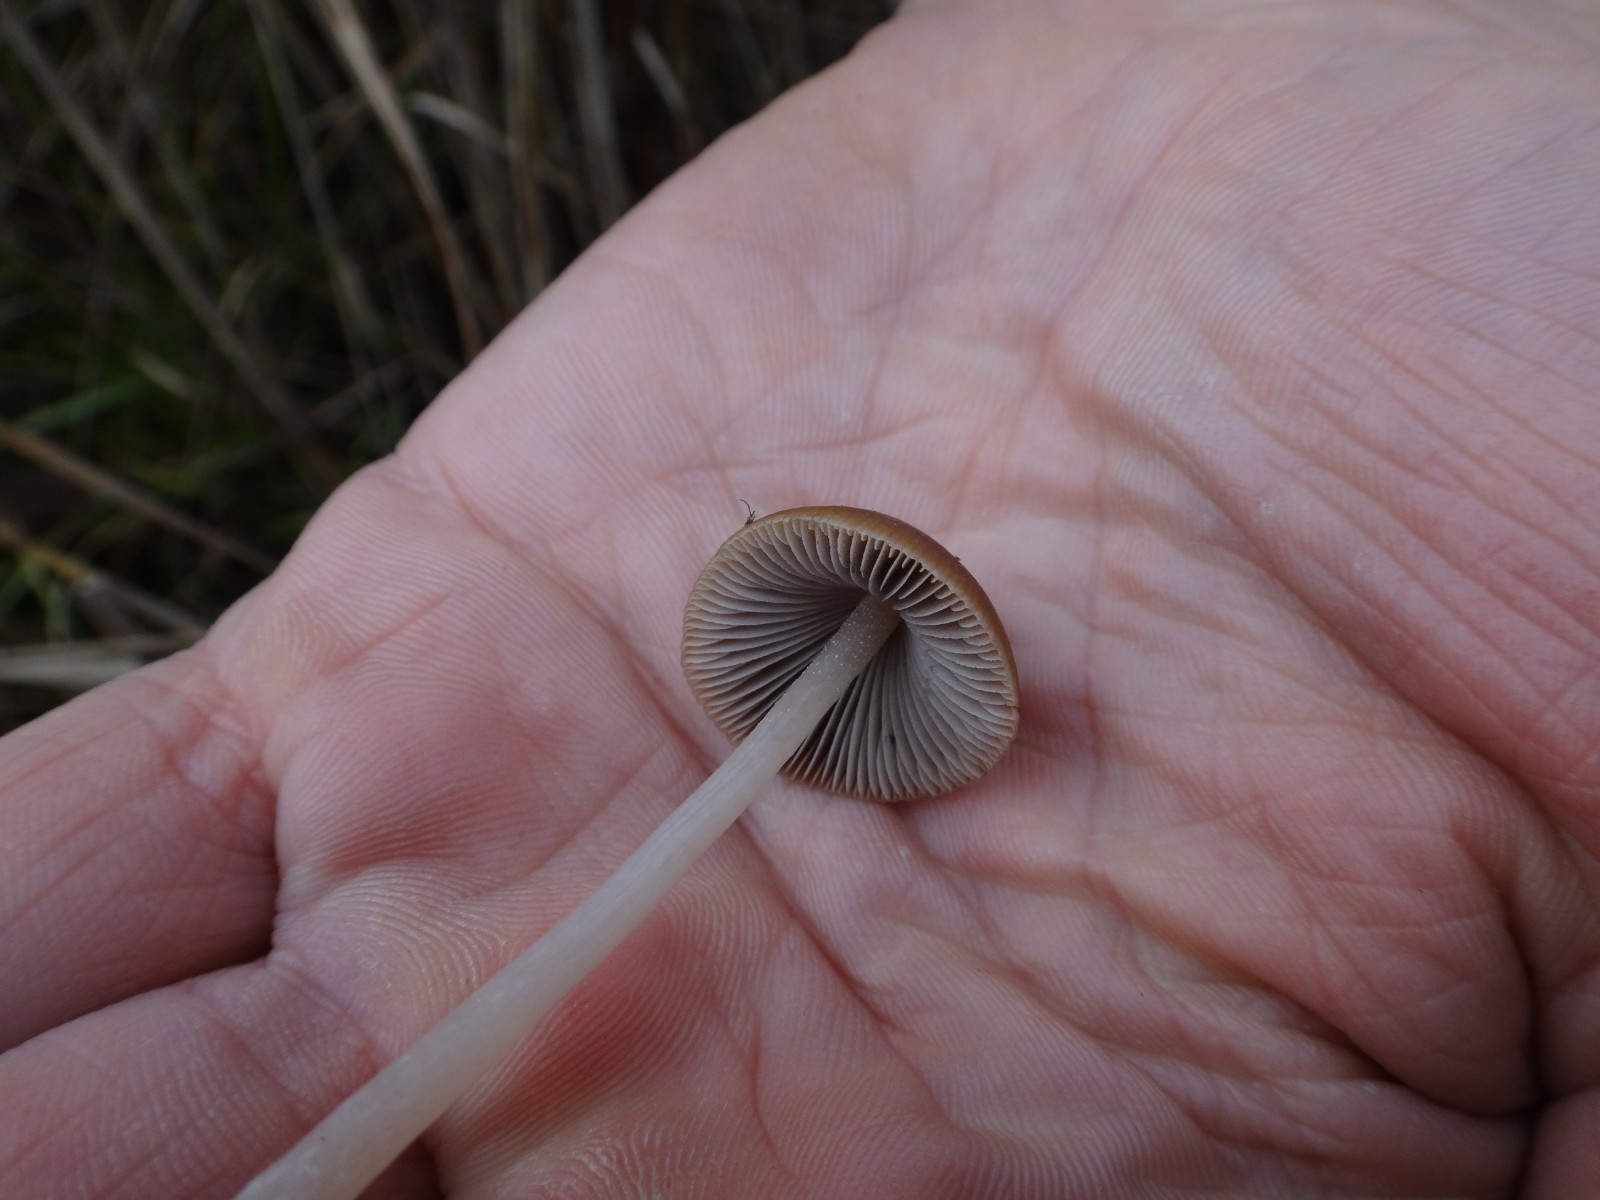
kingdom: Fungi
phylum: Basidiomycota
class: Agaricomycetes
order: Agaricales
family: Psathyrellaceae
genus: Psathyrella
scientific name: Psathyrella
